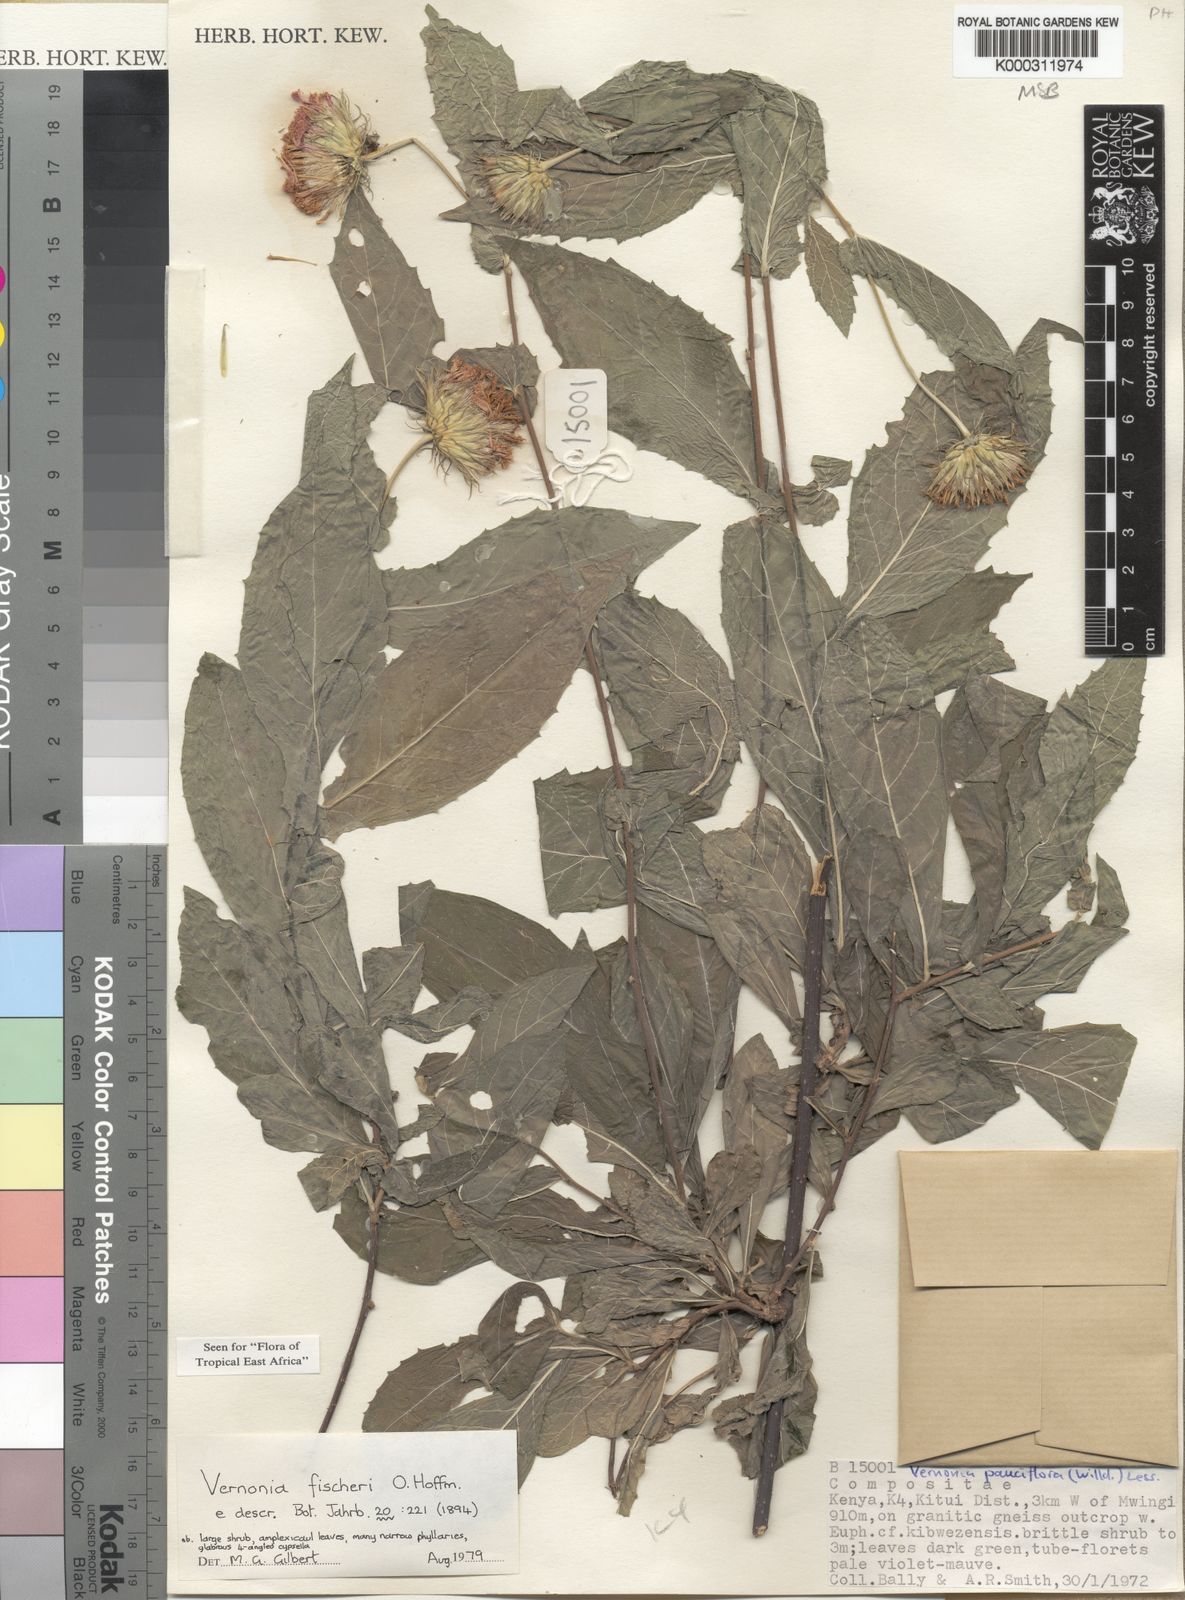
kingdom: Plantae
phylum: Tracheophyta
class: Magnoliopsida
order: Asterales
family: Asteraceae
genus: Vernonia
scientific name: Vernonia fischeri
